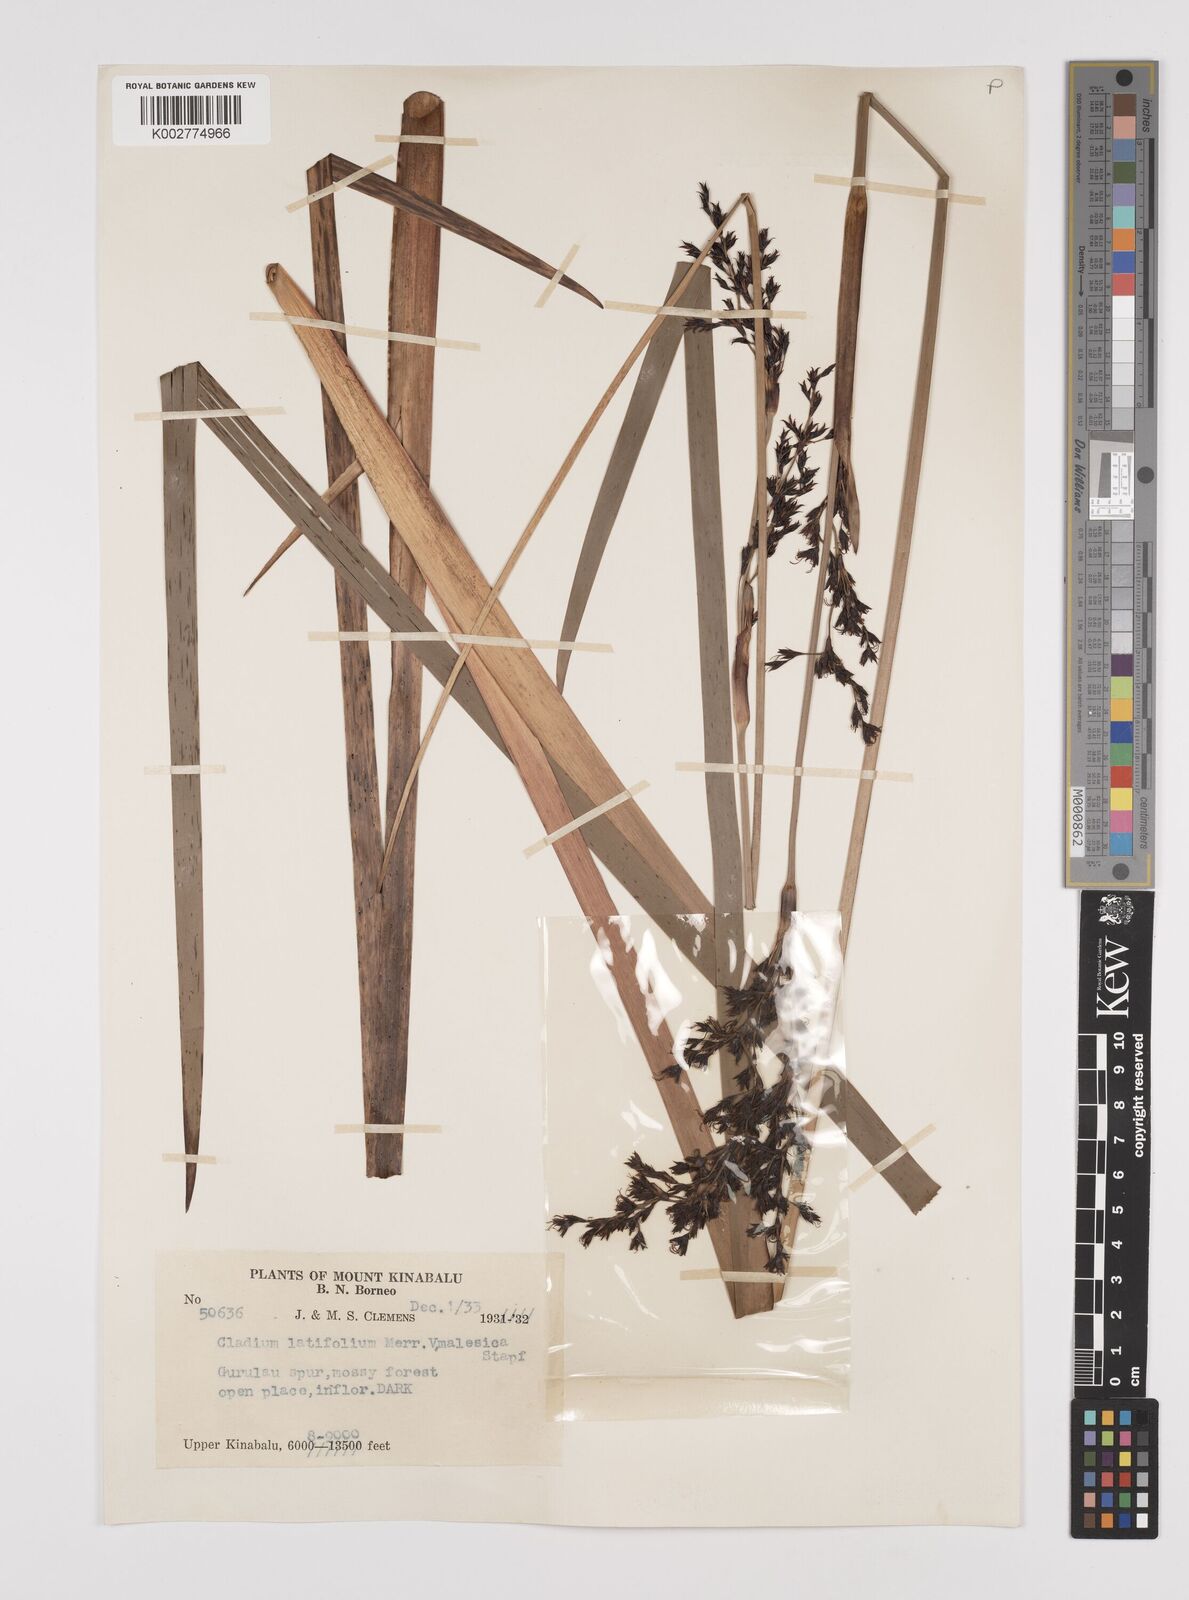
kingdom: Plantae
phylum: Tracheophyta
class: Liliopsida
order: Poales
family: Cyperaceae
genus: Machaerina
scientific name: Machaerina falcata
